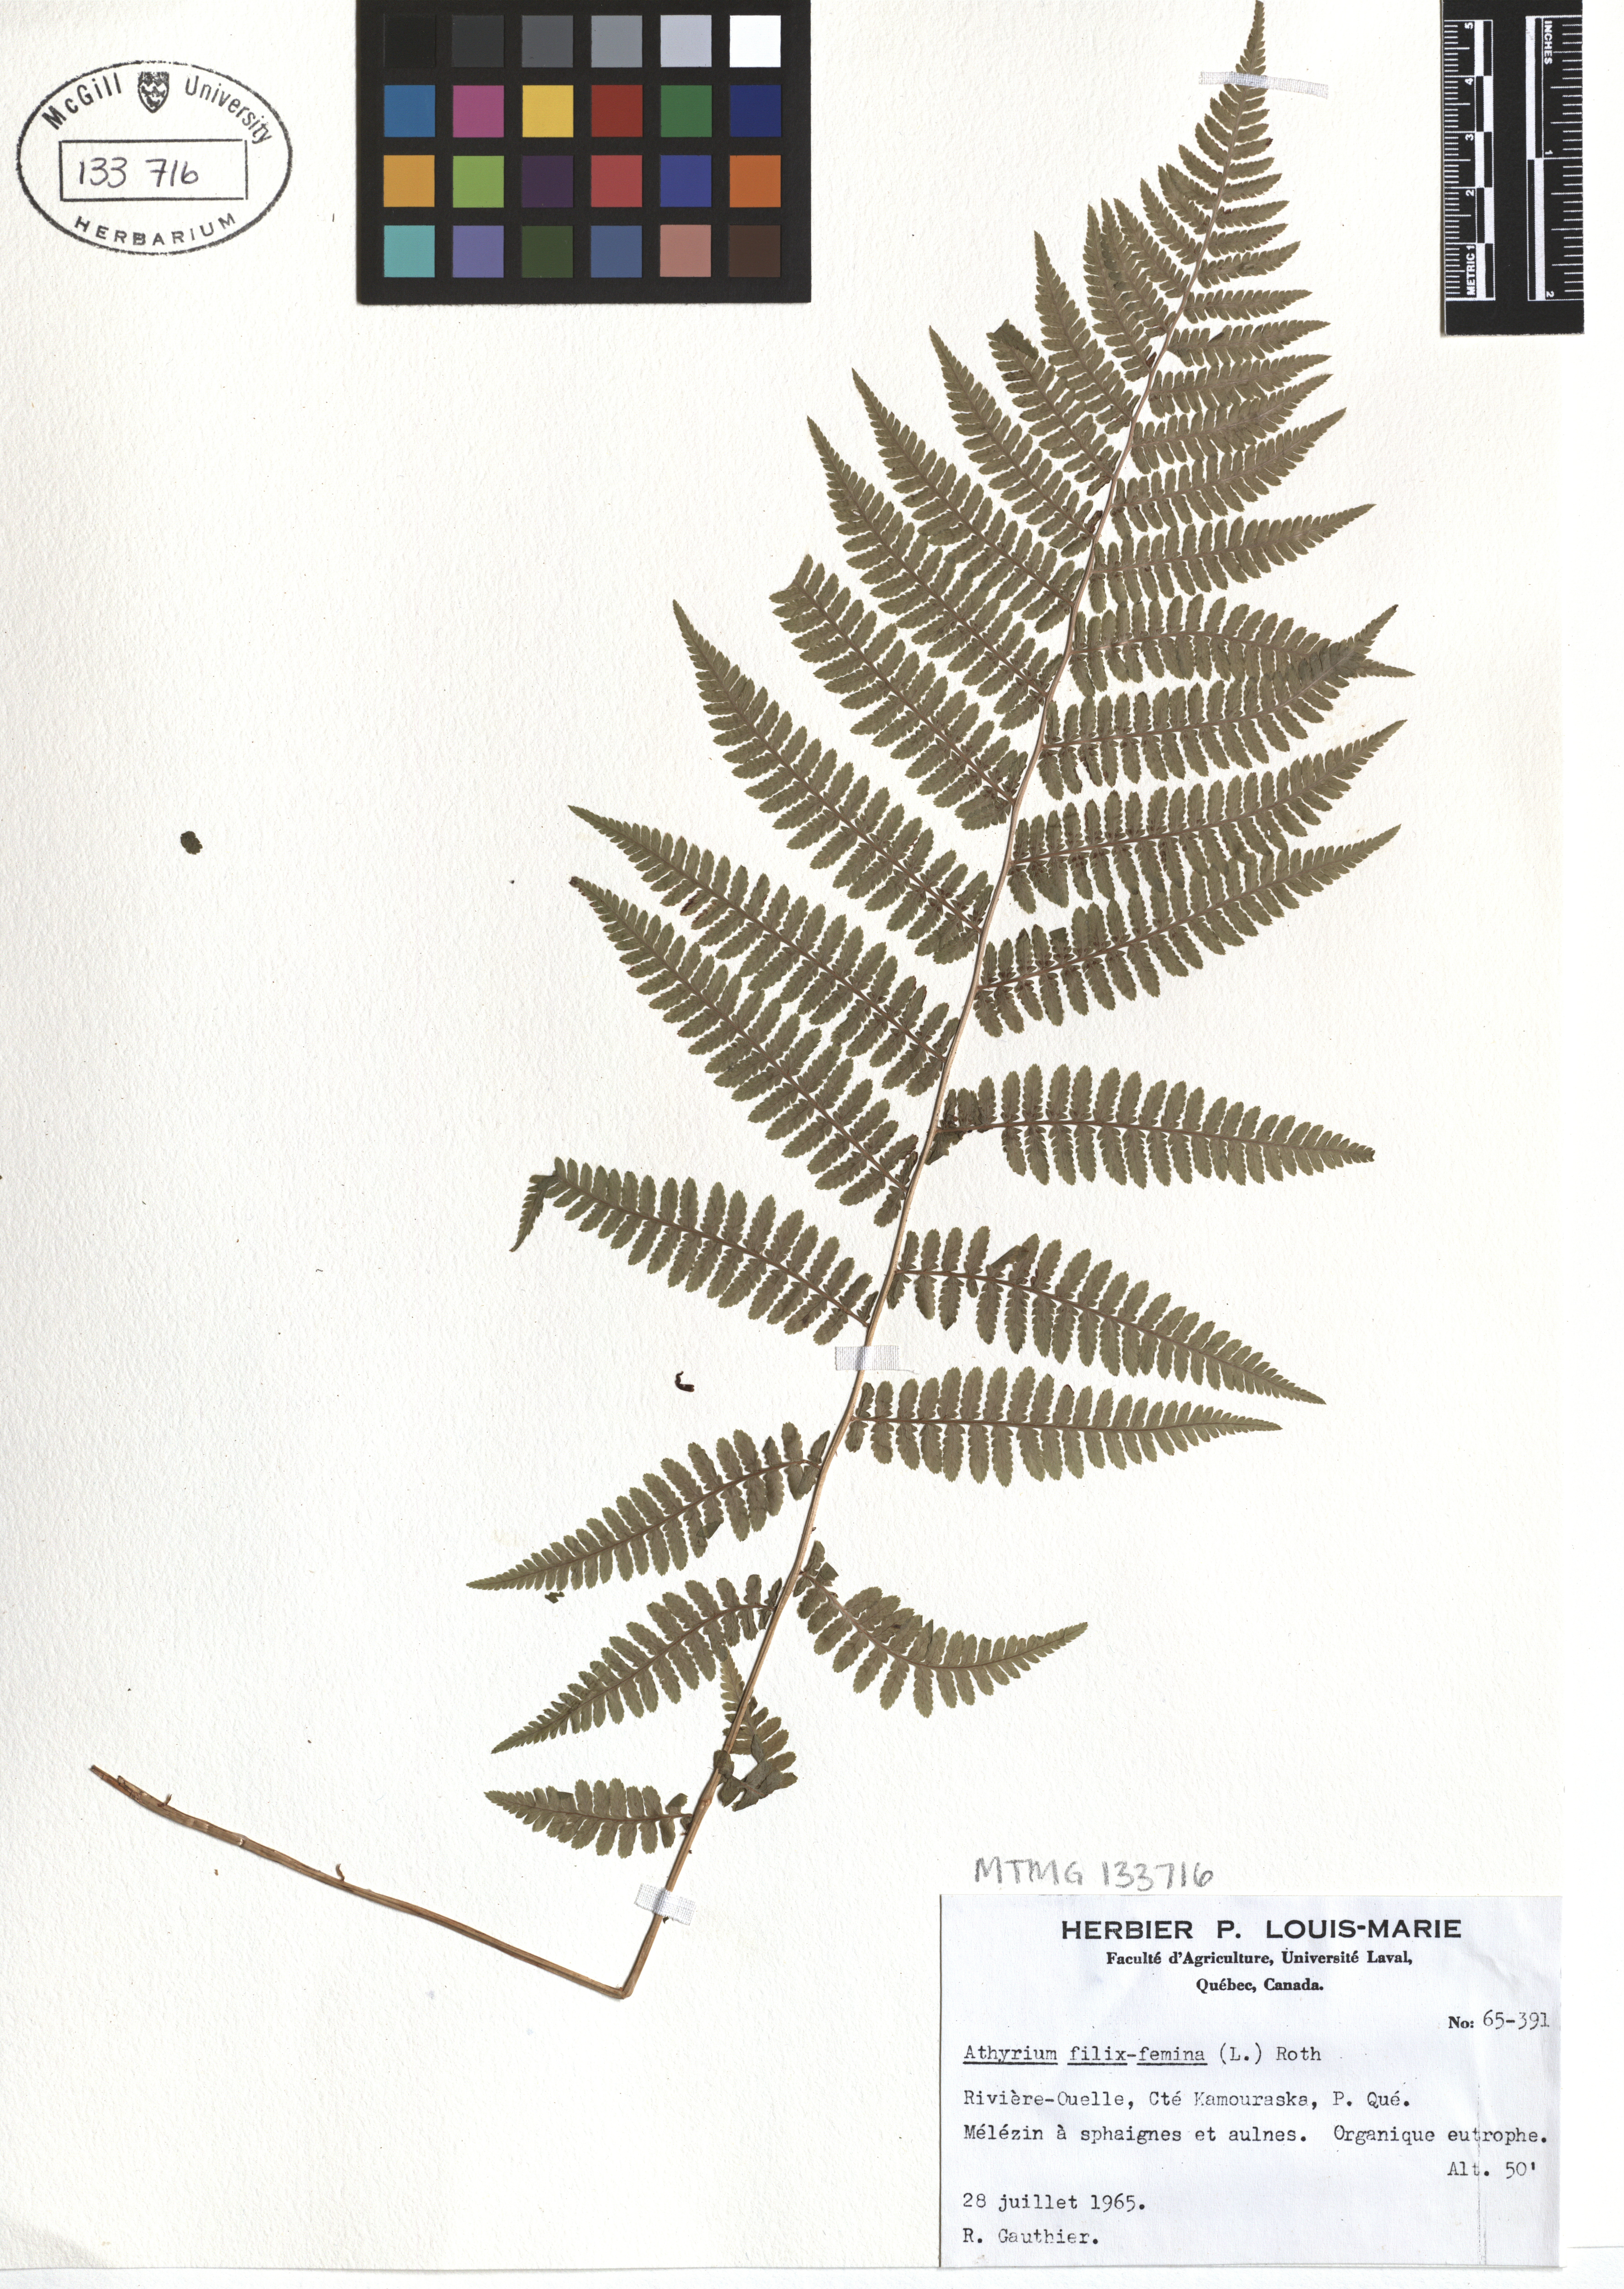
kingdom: Plantae
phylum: Tracheophyta
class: Polypodiopsida
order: Polypodiales
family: Athyriaceae
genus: Athyrium
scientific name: Athyrium filix-femina
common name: Lady fern
